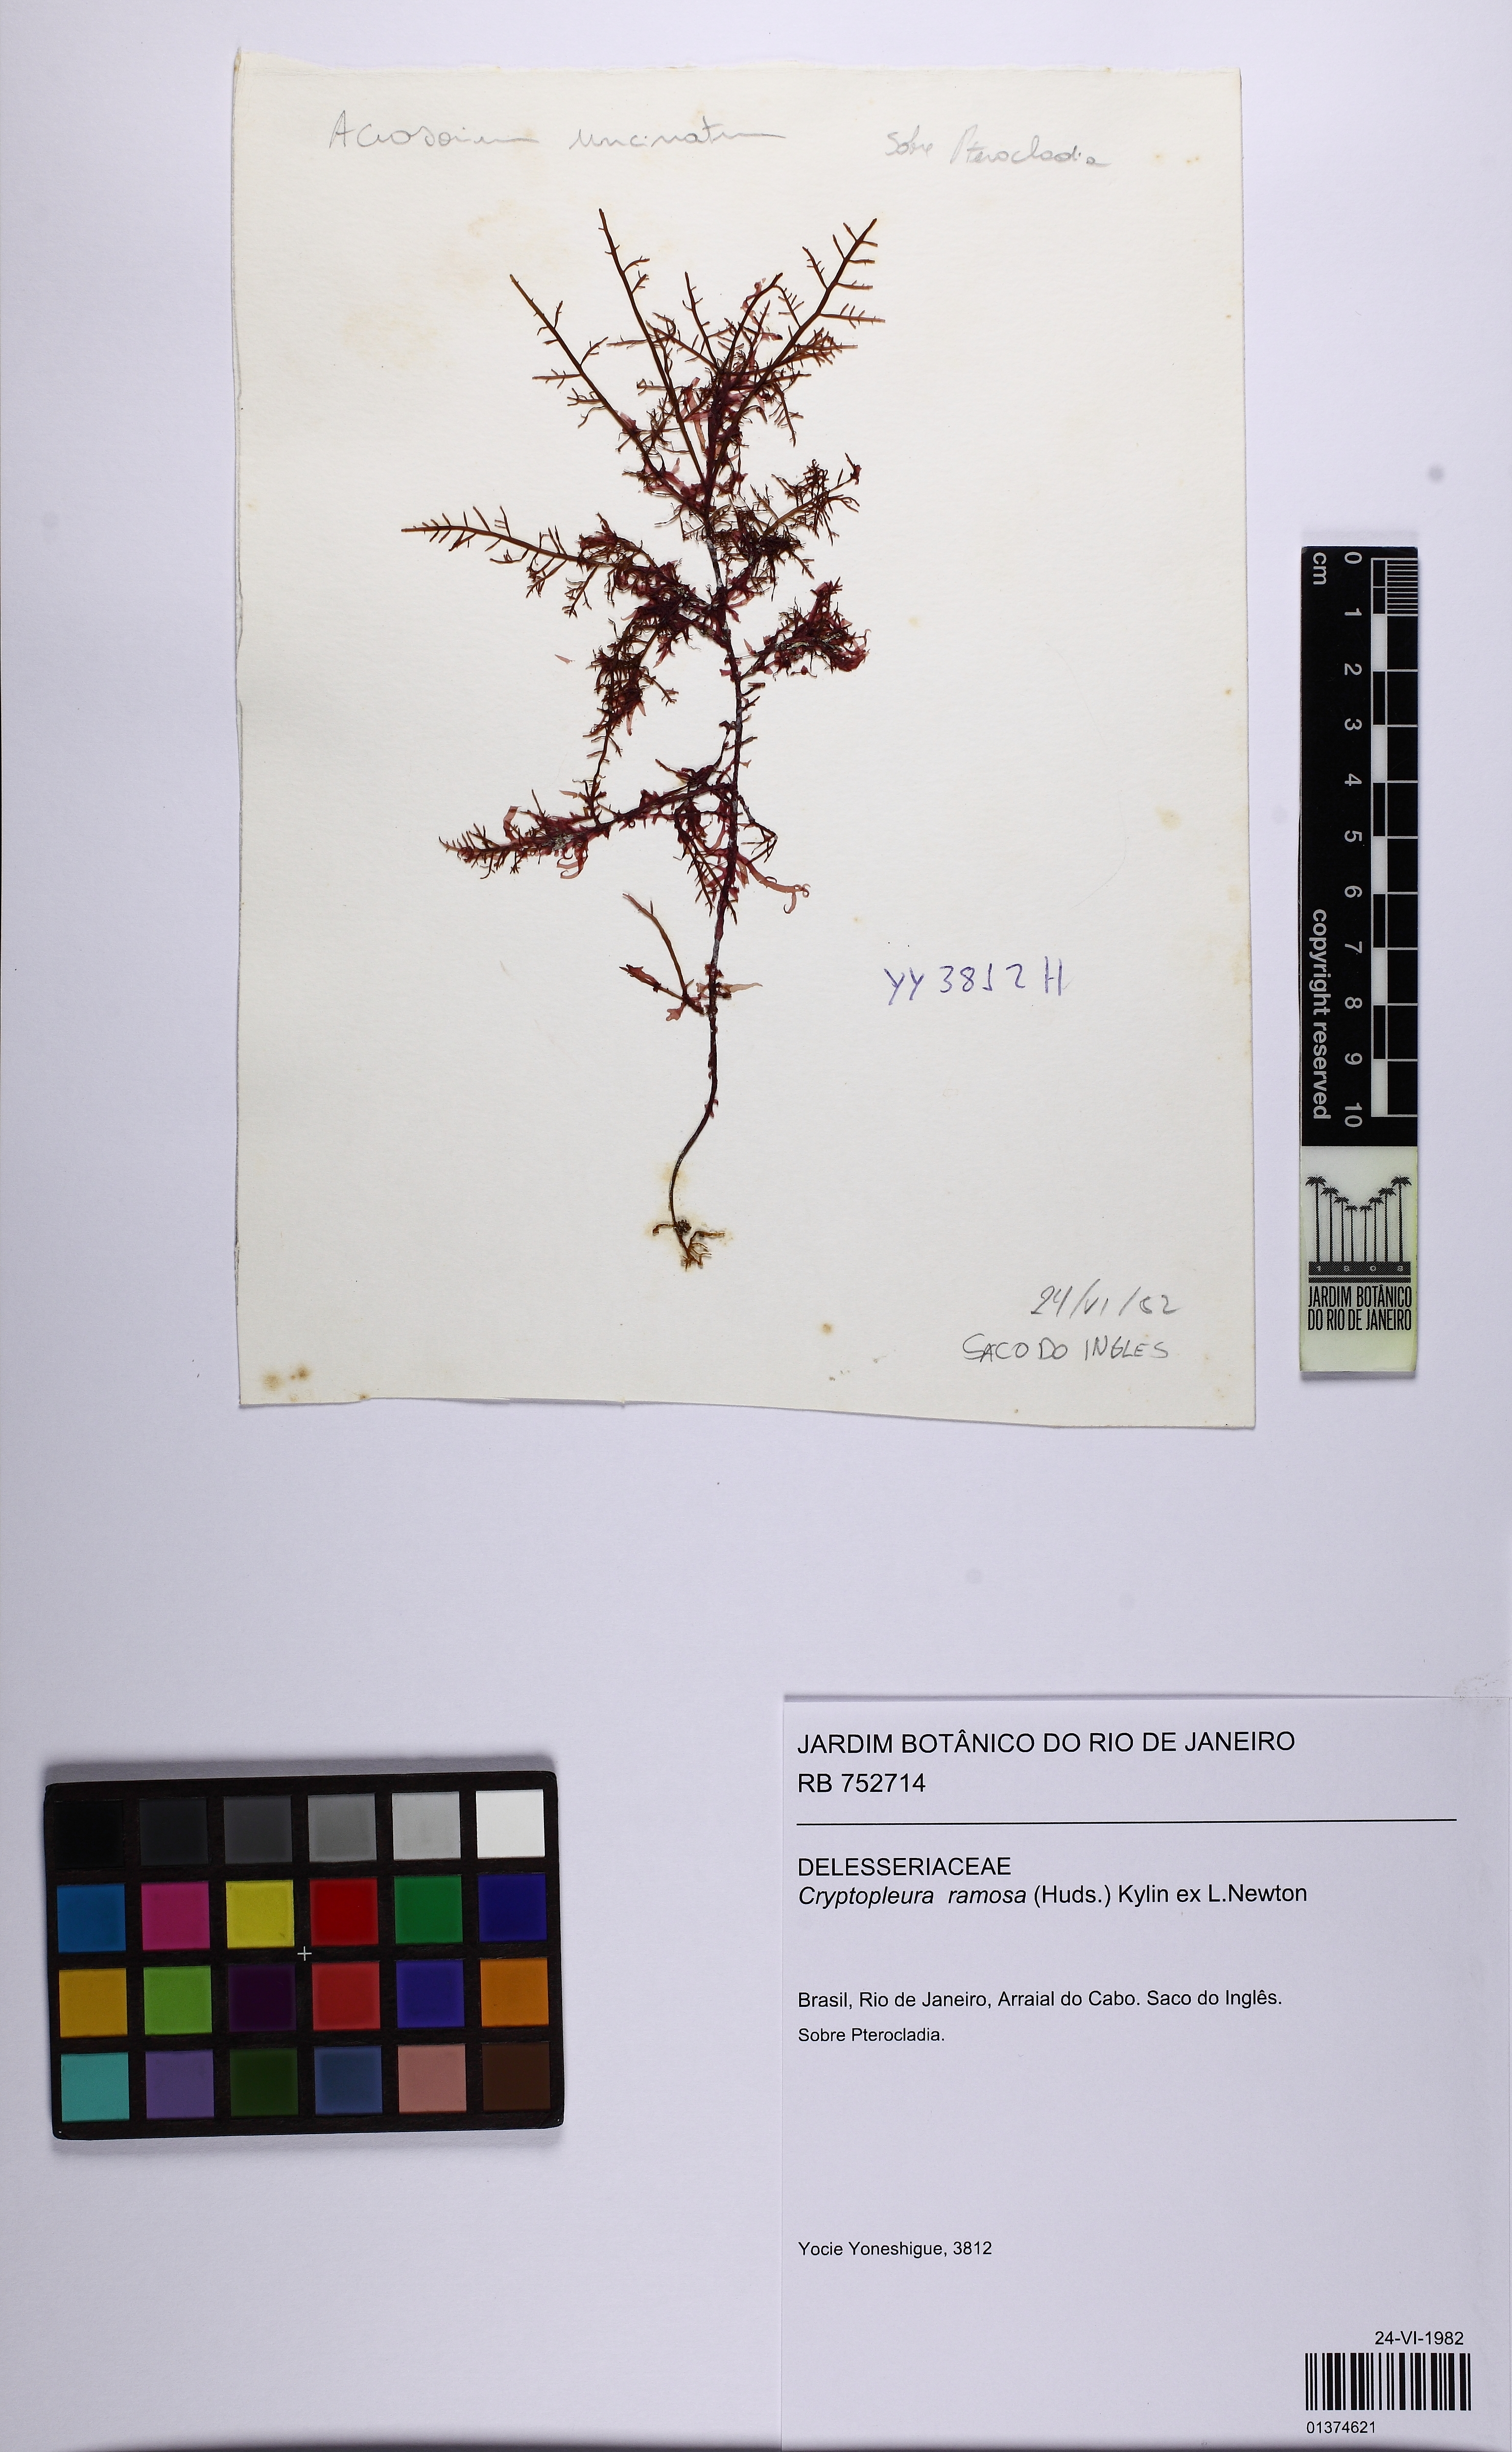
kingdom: Plantae
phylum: Rhodophyta
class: Florideophyceae
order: Ceramiales
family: Delesseriaceae
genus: Cryptopleura
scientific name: Cryptopleura ramosa
